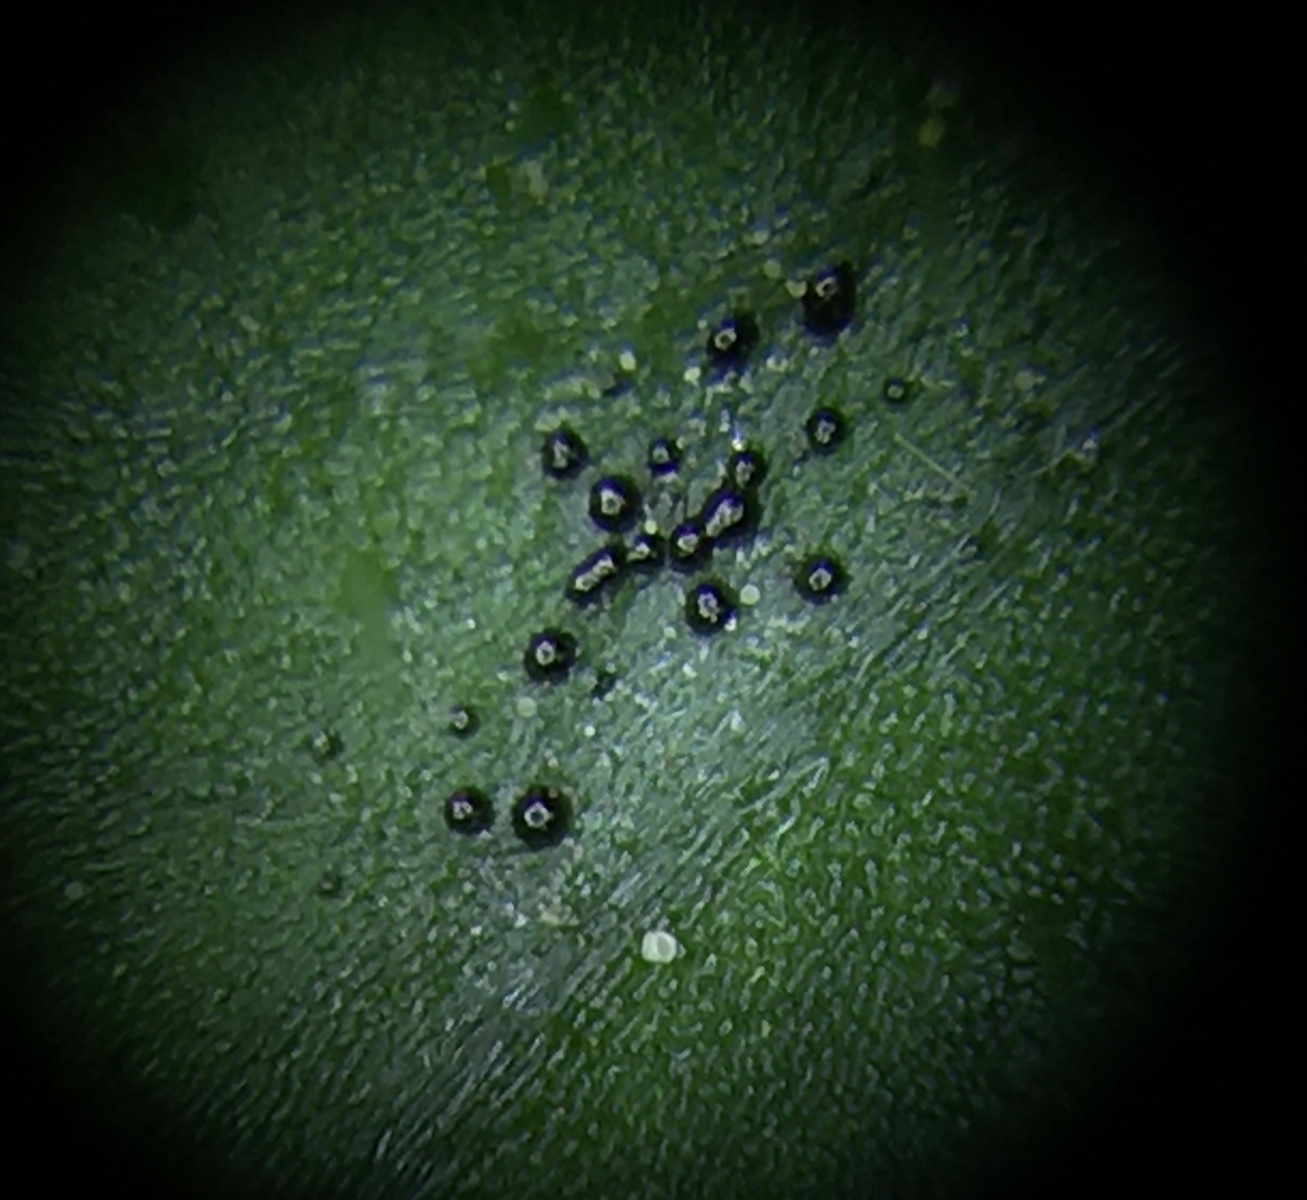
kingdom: Fungi
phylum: Ascomycota
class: Dothideomycetes
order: Venturiales
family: Venturiaceae
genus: Coleroa
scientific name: Coleroa robertiani
